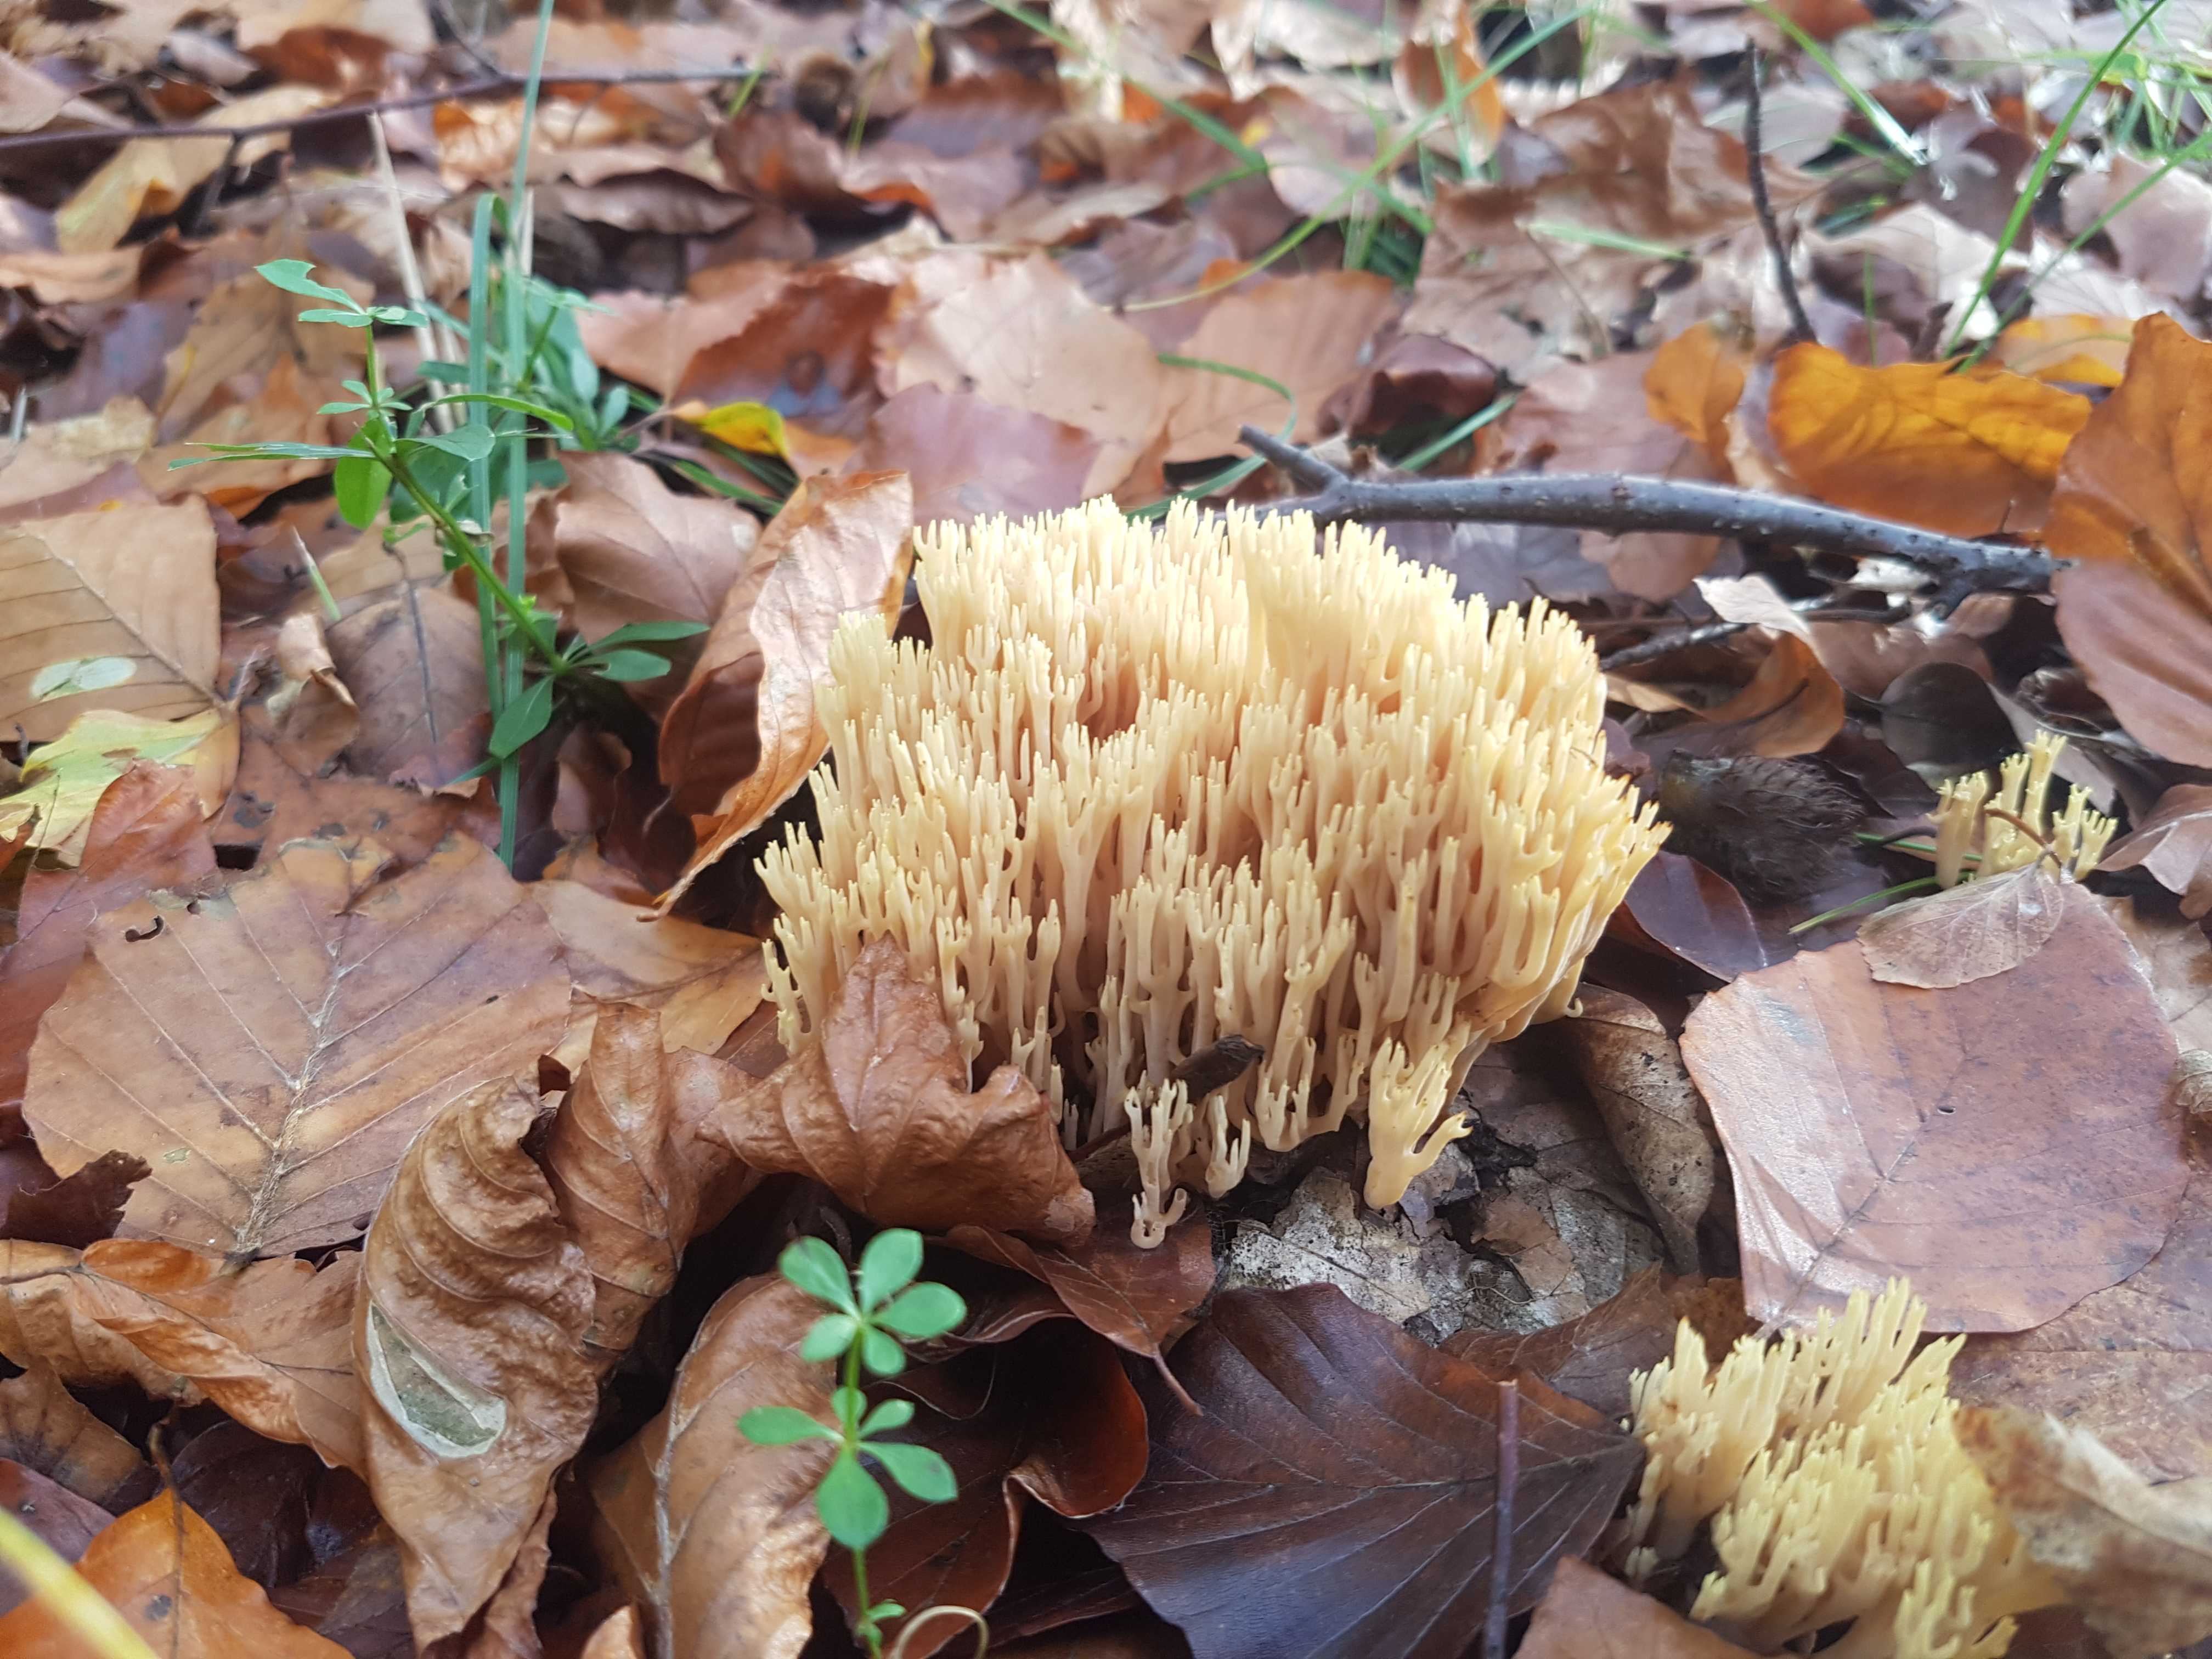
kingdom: Fungi
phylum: Basidiomycota
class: Agaricomycetes
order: Gomphales
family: Gomphaceae
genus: Ramaria
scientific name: Ramaria stricta
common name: rank koralsvamp
